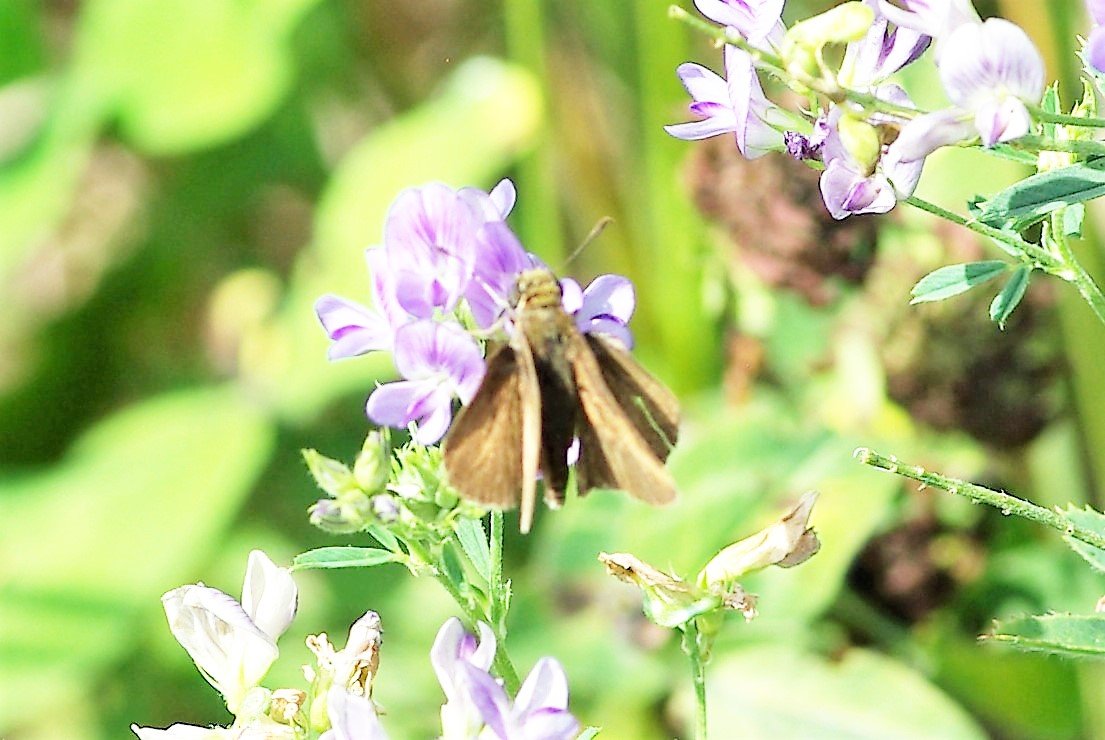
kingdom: Animalia
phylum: Arthropoda
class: Insecta
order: Lepidoptera
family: Hesperiidae
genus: Euphyes
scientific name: Euphyes vestris
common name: Dun Skipper
